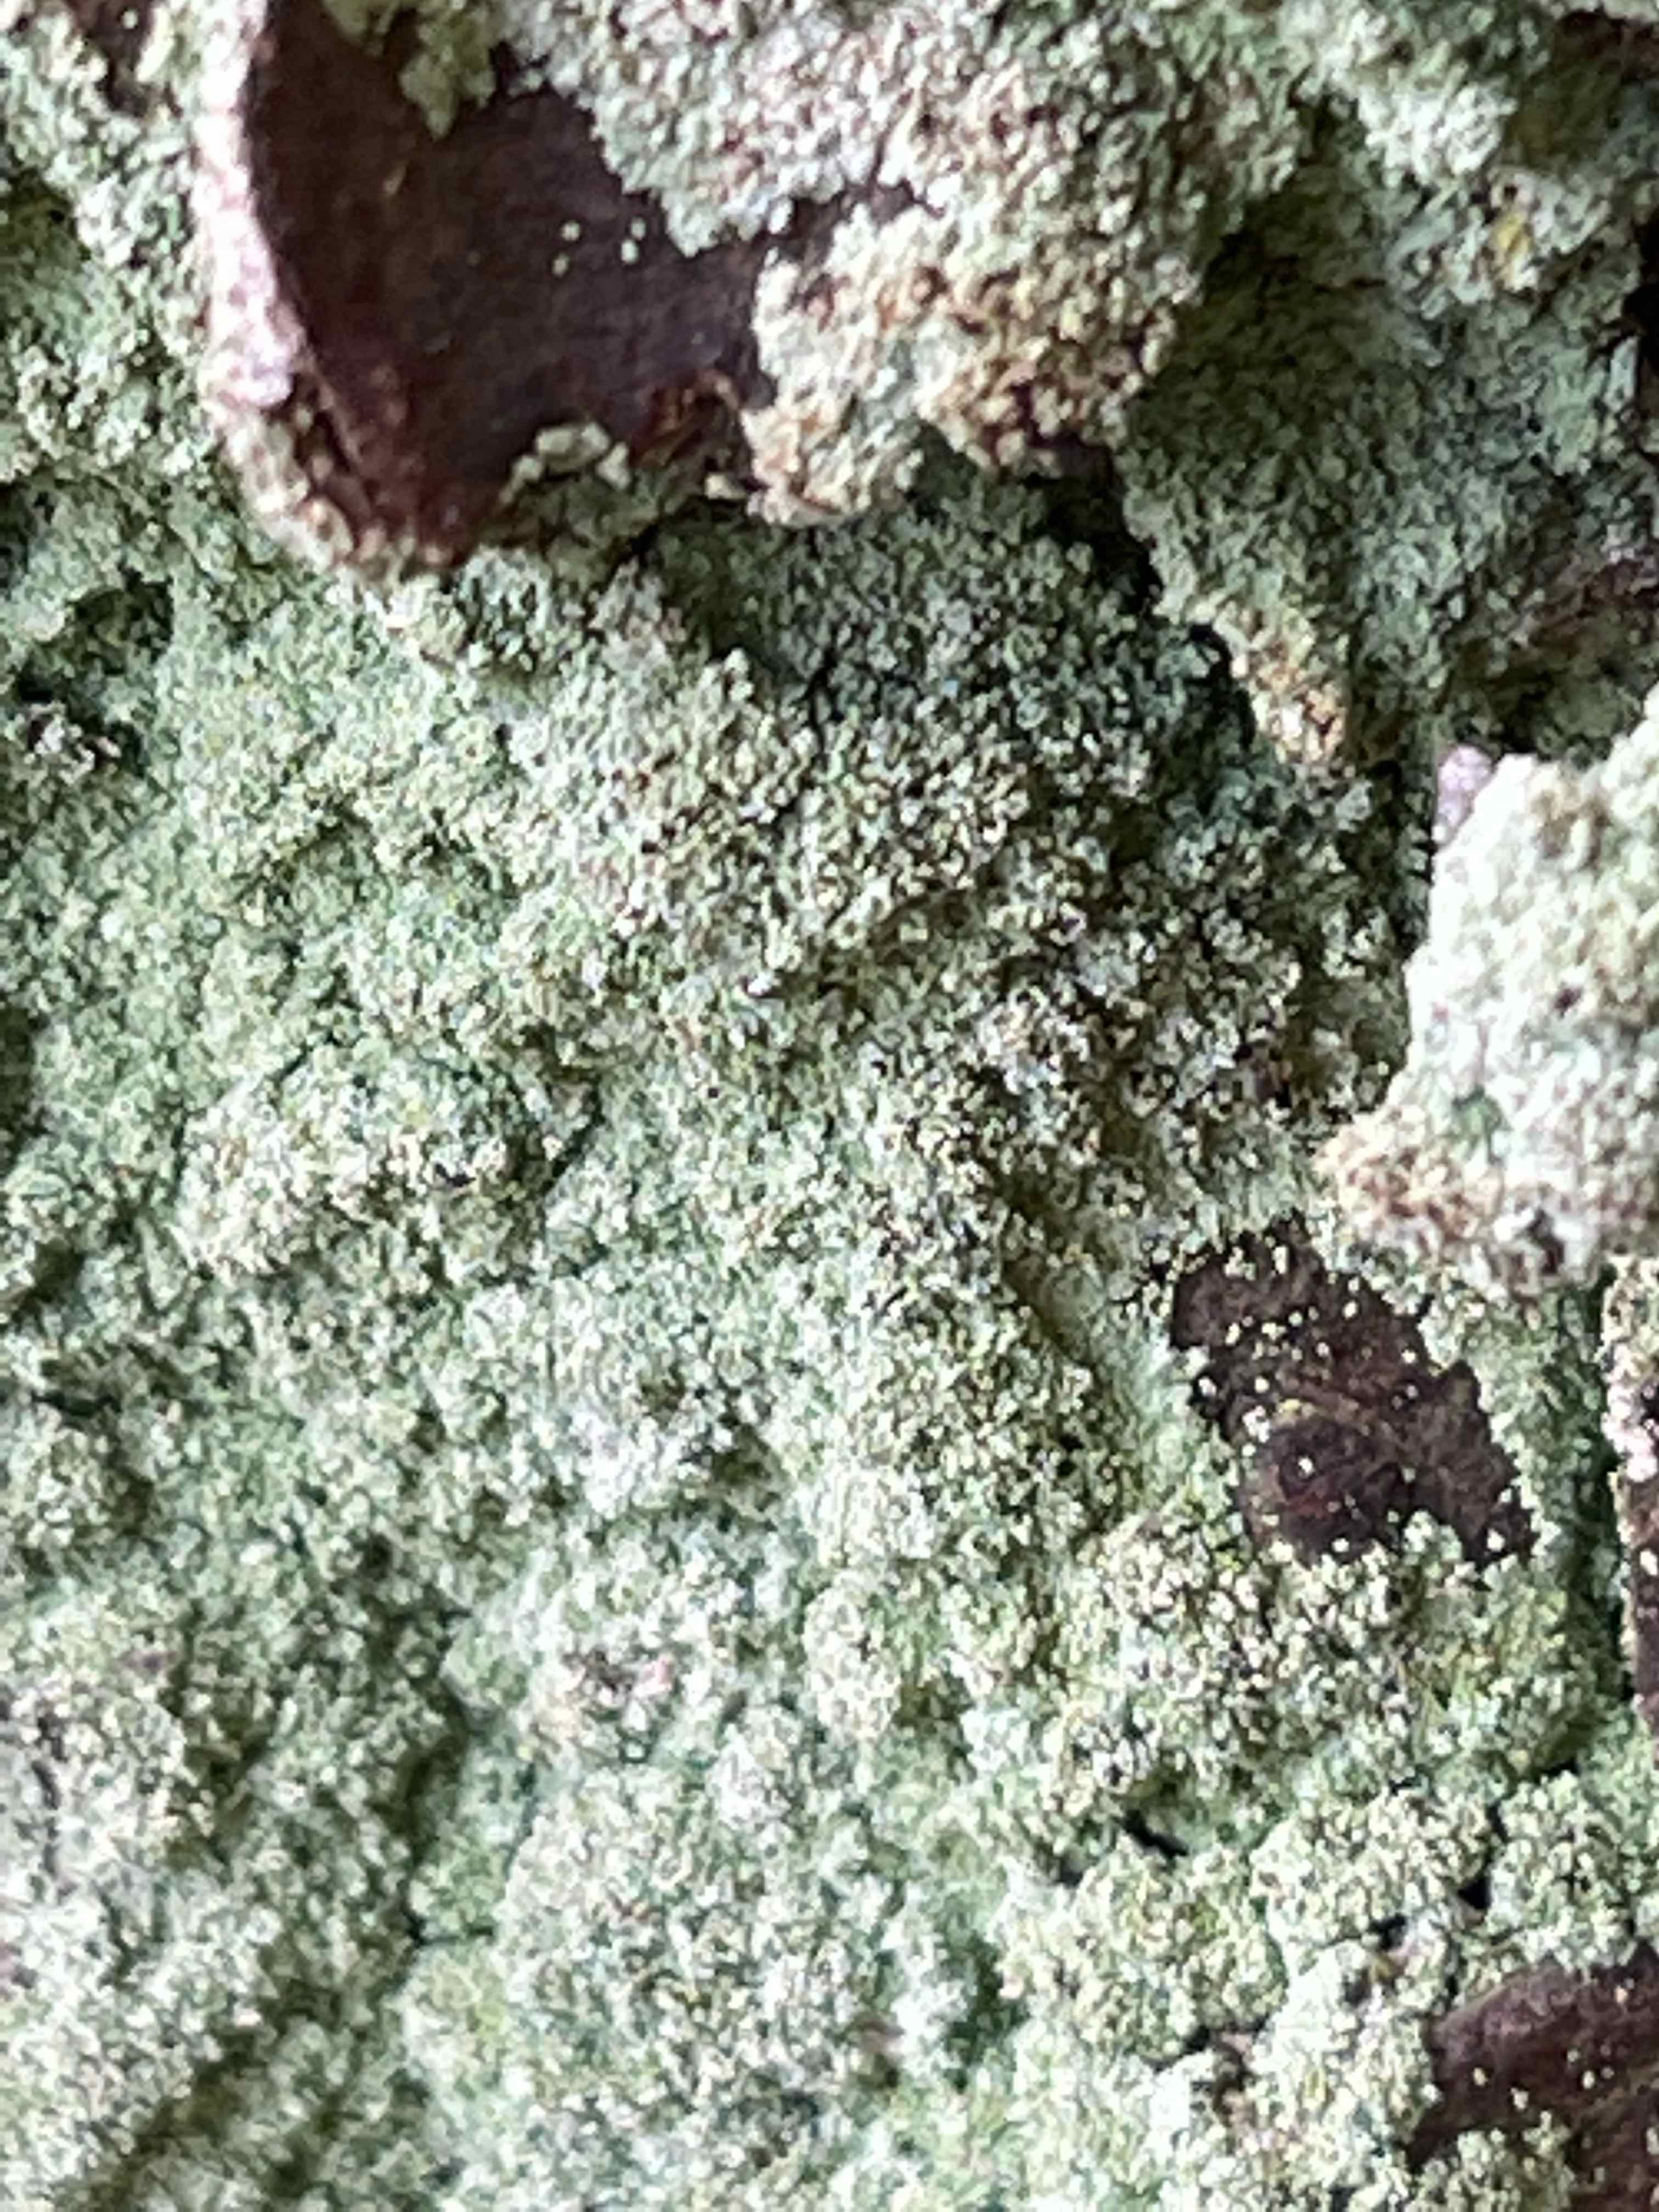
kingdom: Fungi
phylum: Ascomycota
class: Lecanoromycetes
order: Lecanorales
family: Stereocaulaceae
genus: Lepraria
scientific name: Lepraria incana
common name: almindelig støvlav
